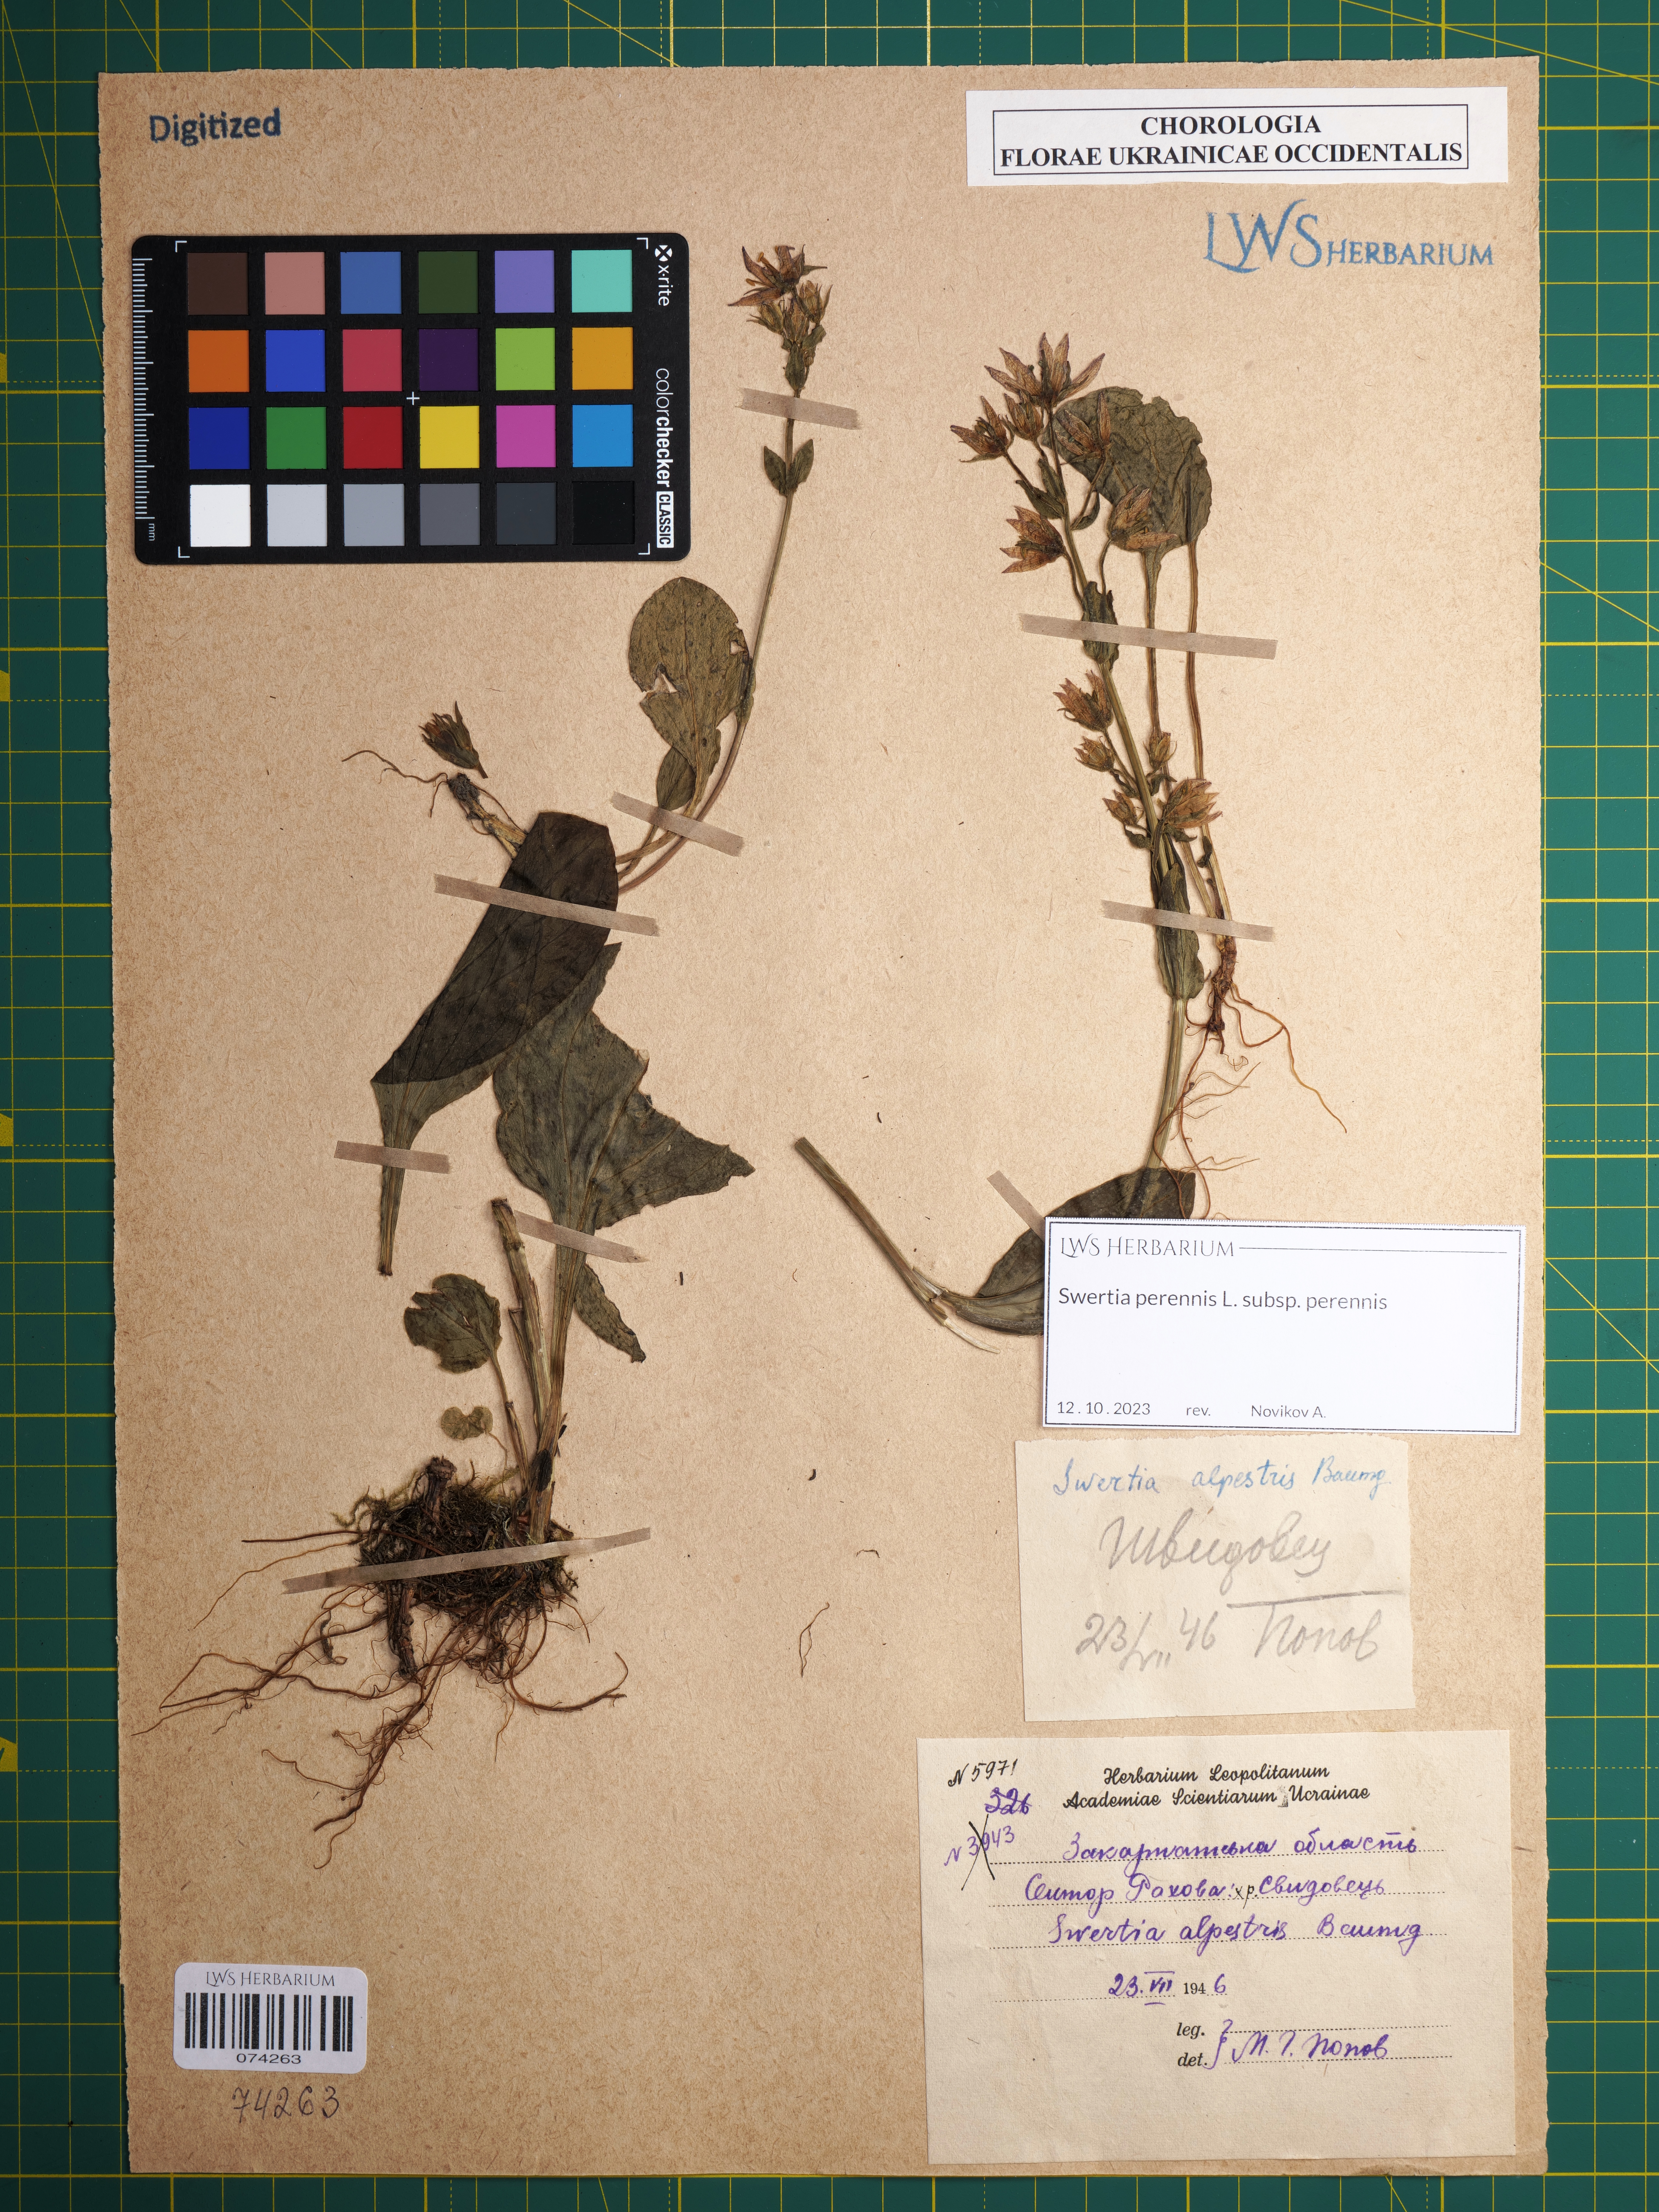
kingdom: Plantae
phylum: Tracheophyta
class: Magnoliopsida
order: Gentianales
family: Gentianaceae
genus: Swertia
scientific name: Swertia perennis
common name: Alpine bog swertia
